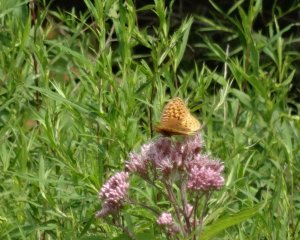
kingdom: Animalia
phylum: Arthropoda
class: Insecta
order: Lepidoptera
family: Nymphalidae
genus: Speyeria
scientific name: Speyeria cybele
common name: Great Spangled Fritillary
